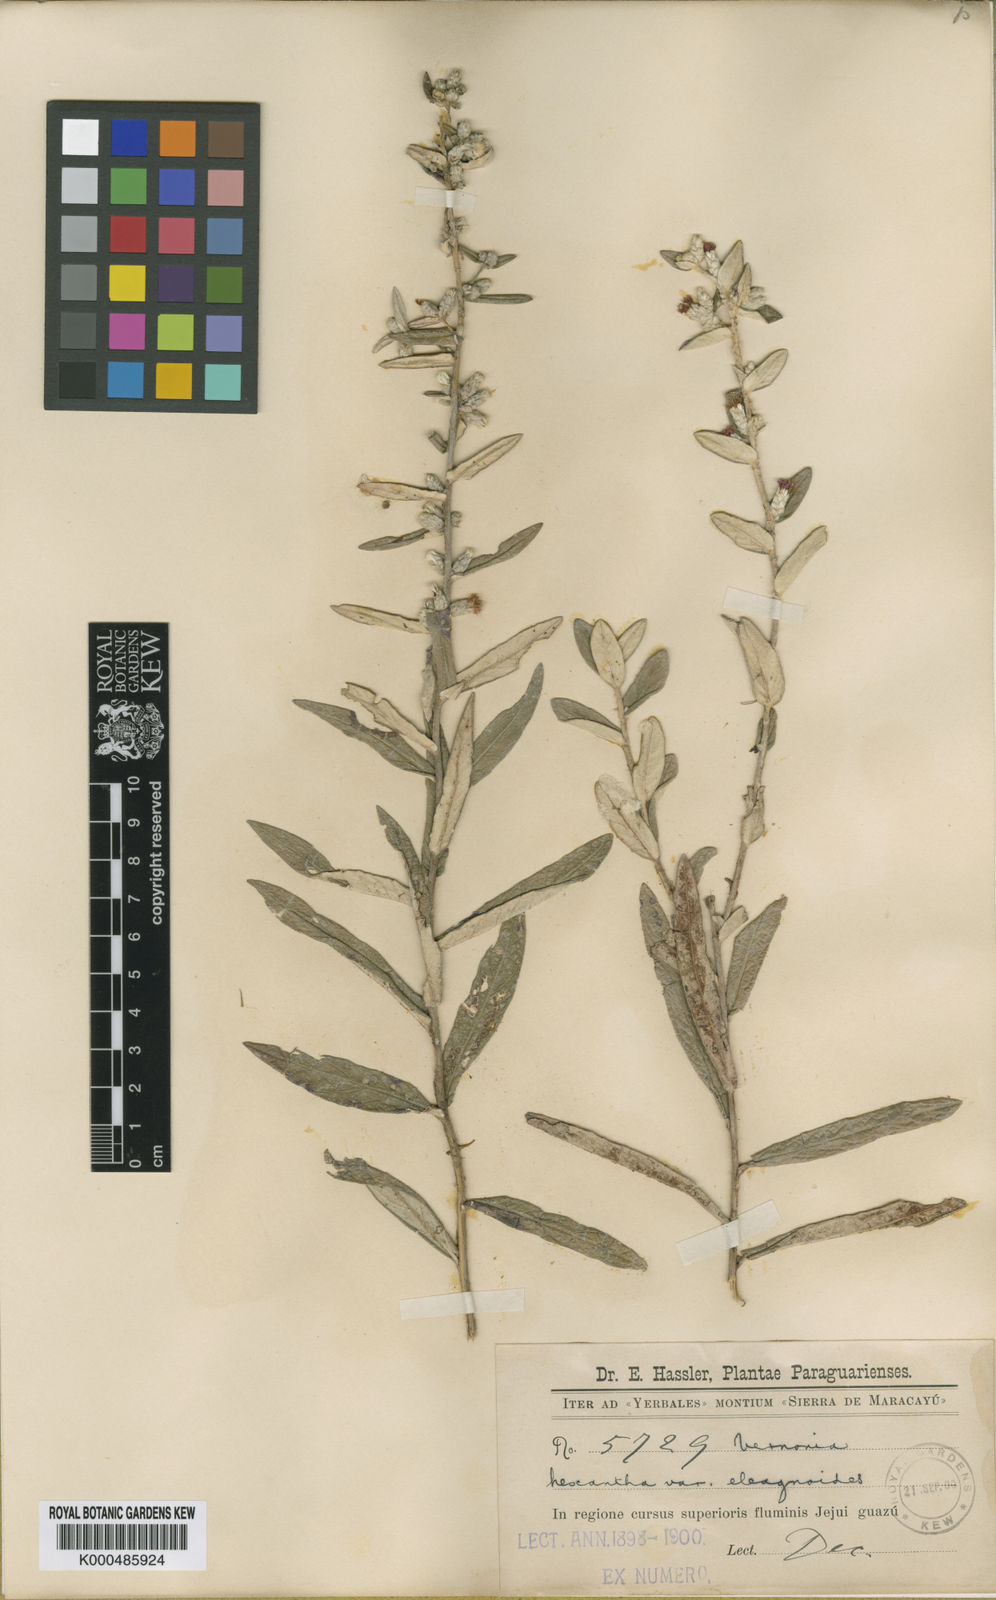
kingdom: Plantae
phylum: Tracheophyta
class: Magnoliopsida
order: Asterales
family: Asteraceae
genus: Stenocephalum
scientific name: Stenocephalum hexanthum
